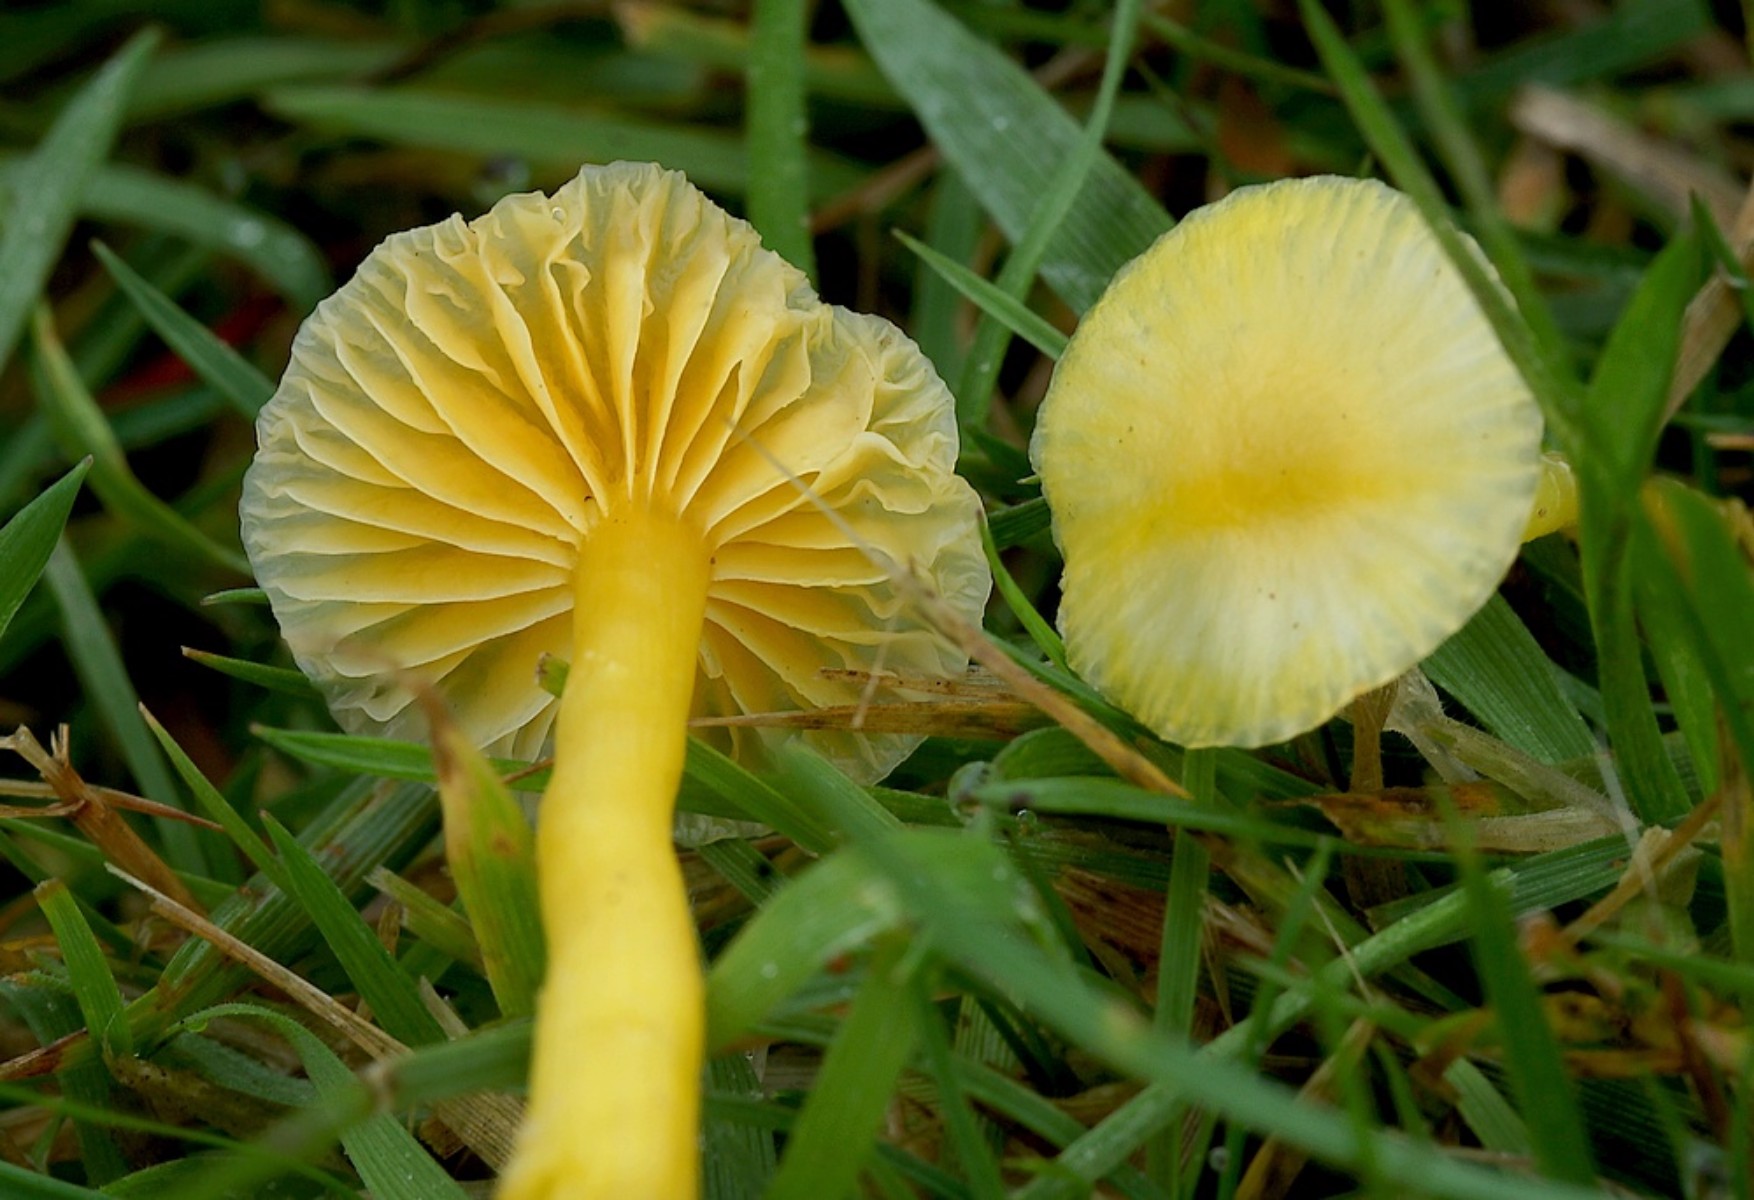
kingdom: Fungi
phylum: Basidiomycota
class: Agaricomycetes
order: Agaricales
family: Hygrophoraceae
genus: Hygrocybe
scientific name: Hygrocybe ceracea
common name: voksgul vokshat
